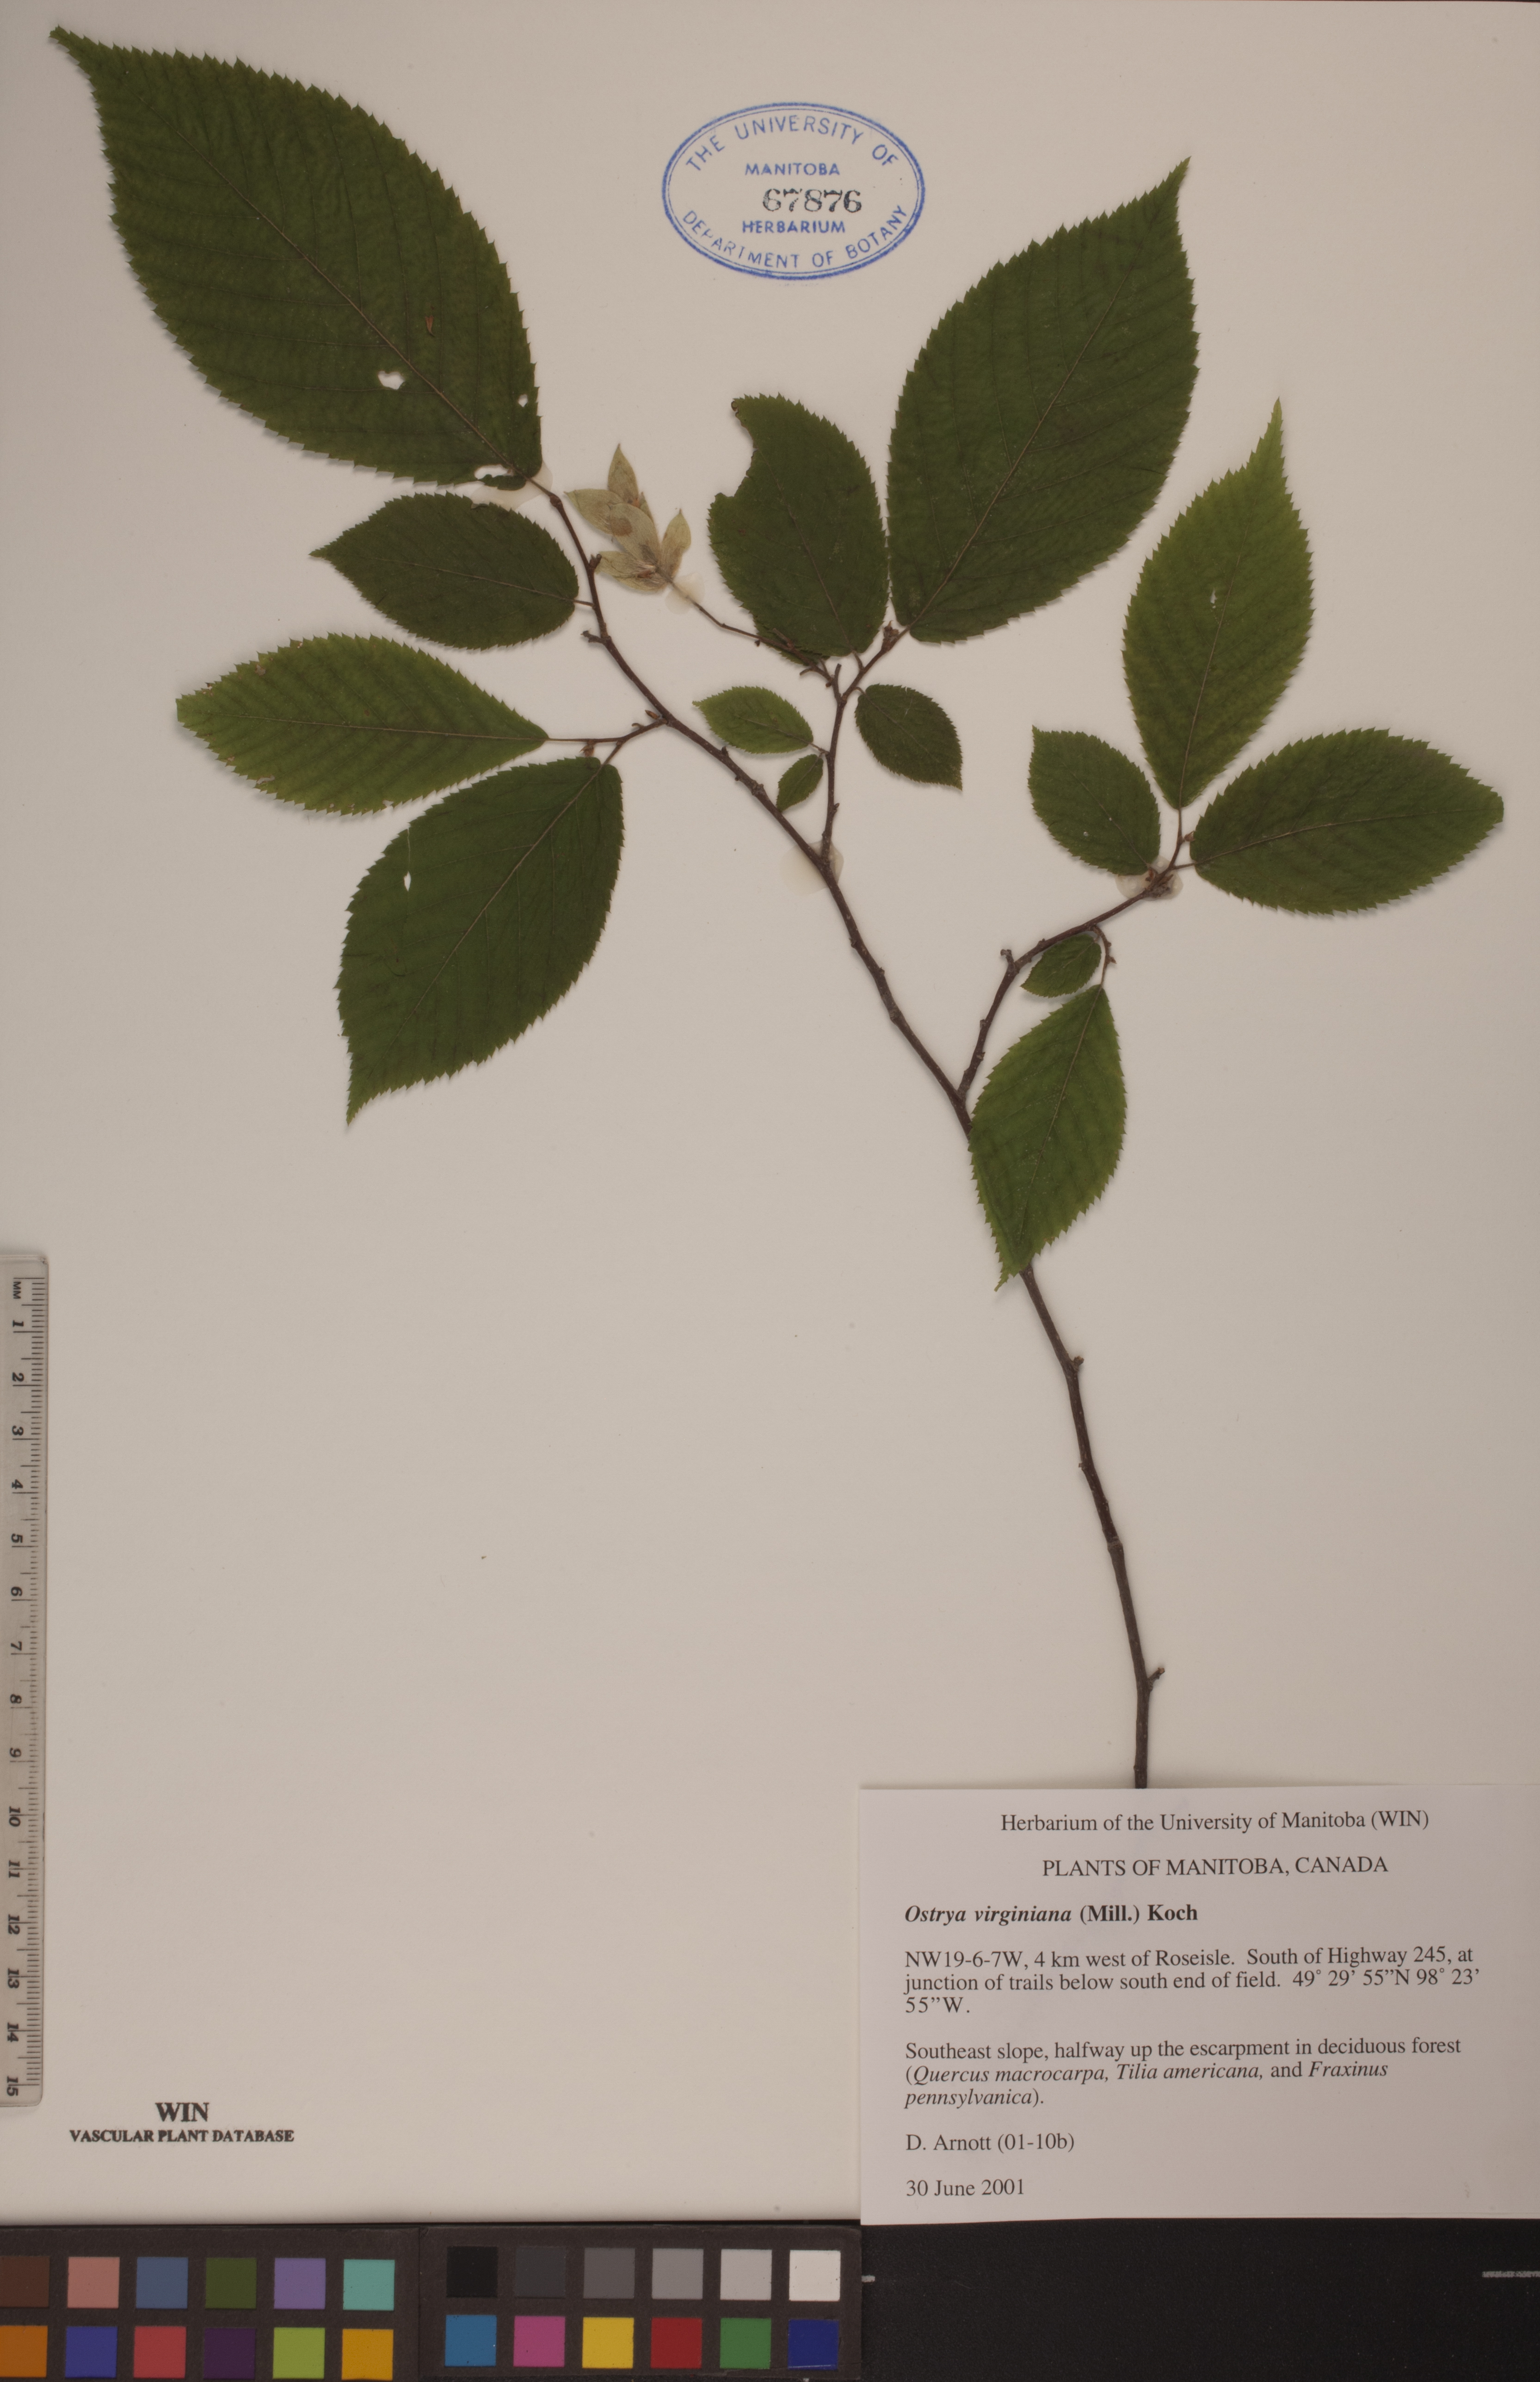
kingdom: Plantae
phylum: Tracheophyta
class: Magnoliopsida
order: Fagales
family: Betulaceae
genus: Ostrya
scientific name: Ostrya virginiana
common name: Ironwood
